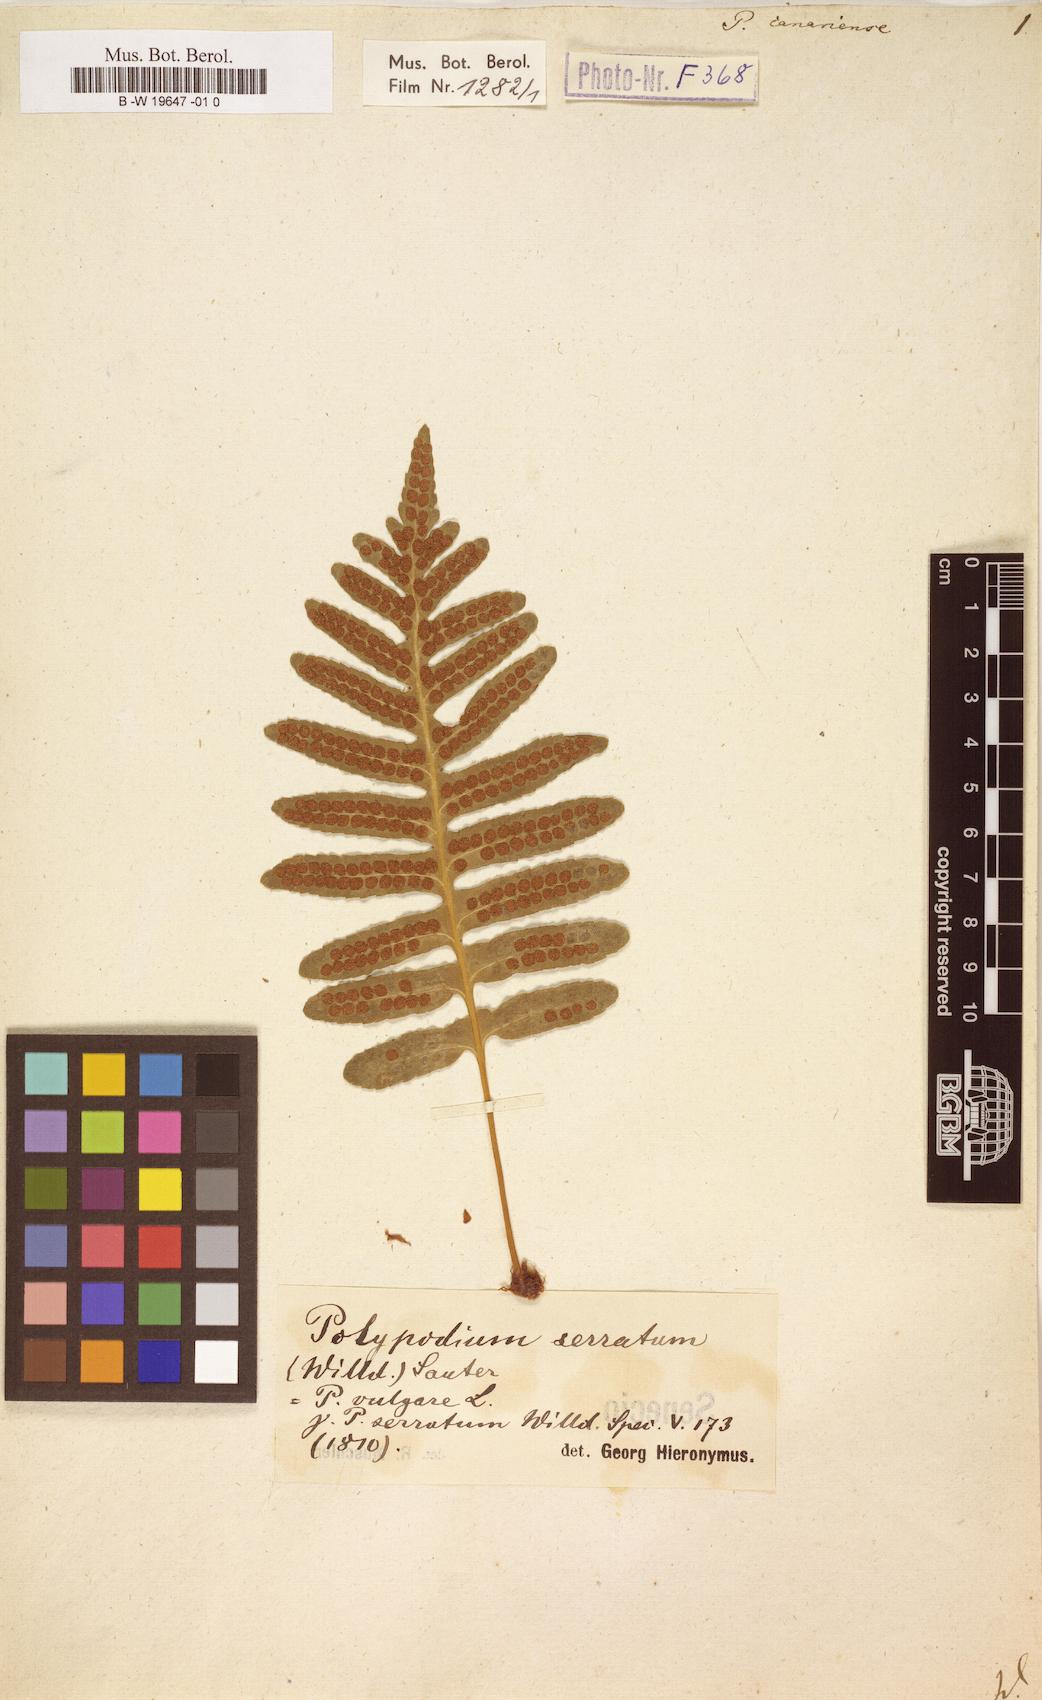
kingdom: Plantae
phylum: Tracheophyta
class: Polypodiopsida
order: Polypodiales
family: Polypodiaceae
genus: Polypodium
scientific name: Polypodium cambricum
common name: Southern polypody
